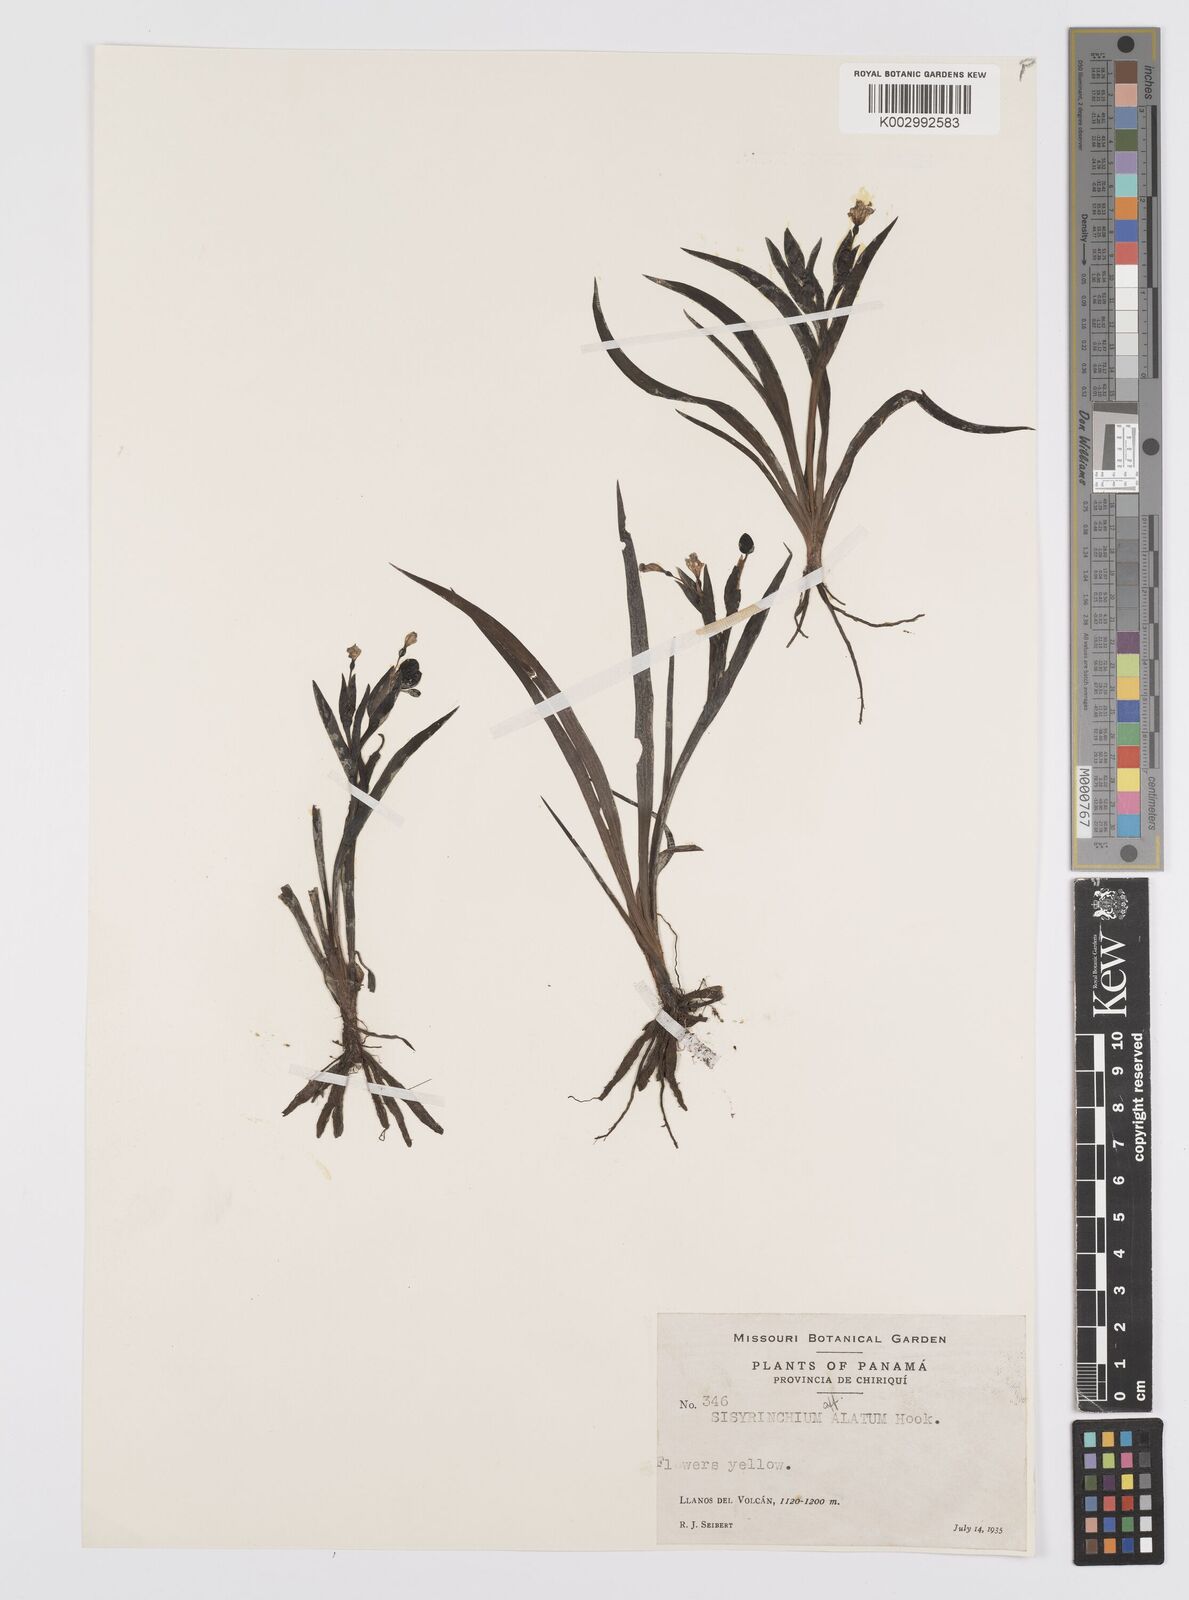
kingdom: Plantae
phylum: Tracheophyta
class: Liliopsida
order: Asparagales
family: Iridaceae
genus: Sisyrinchium
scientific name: Sisyrinchium vaginatum
